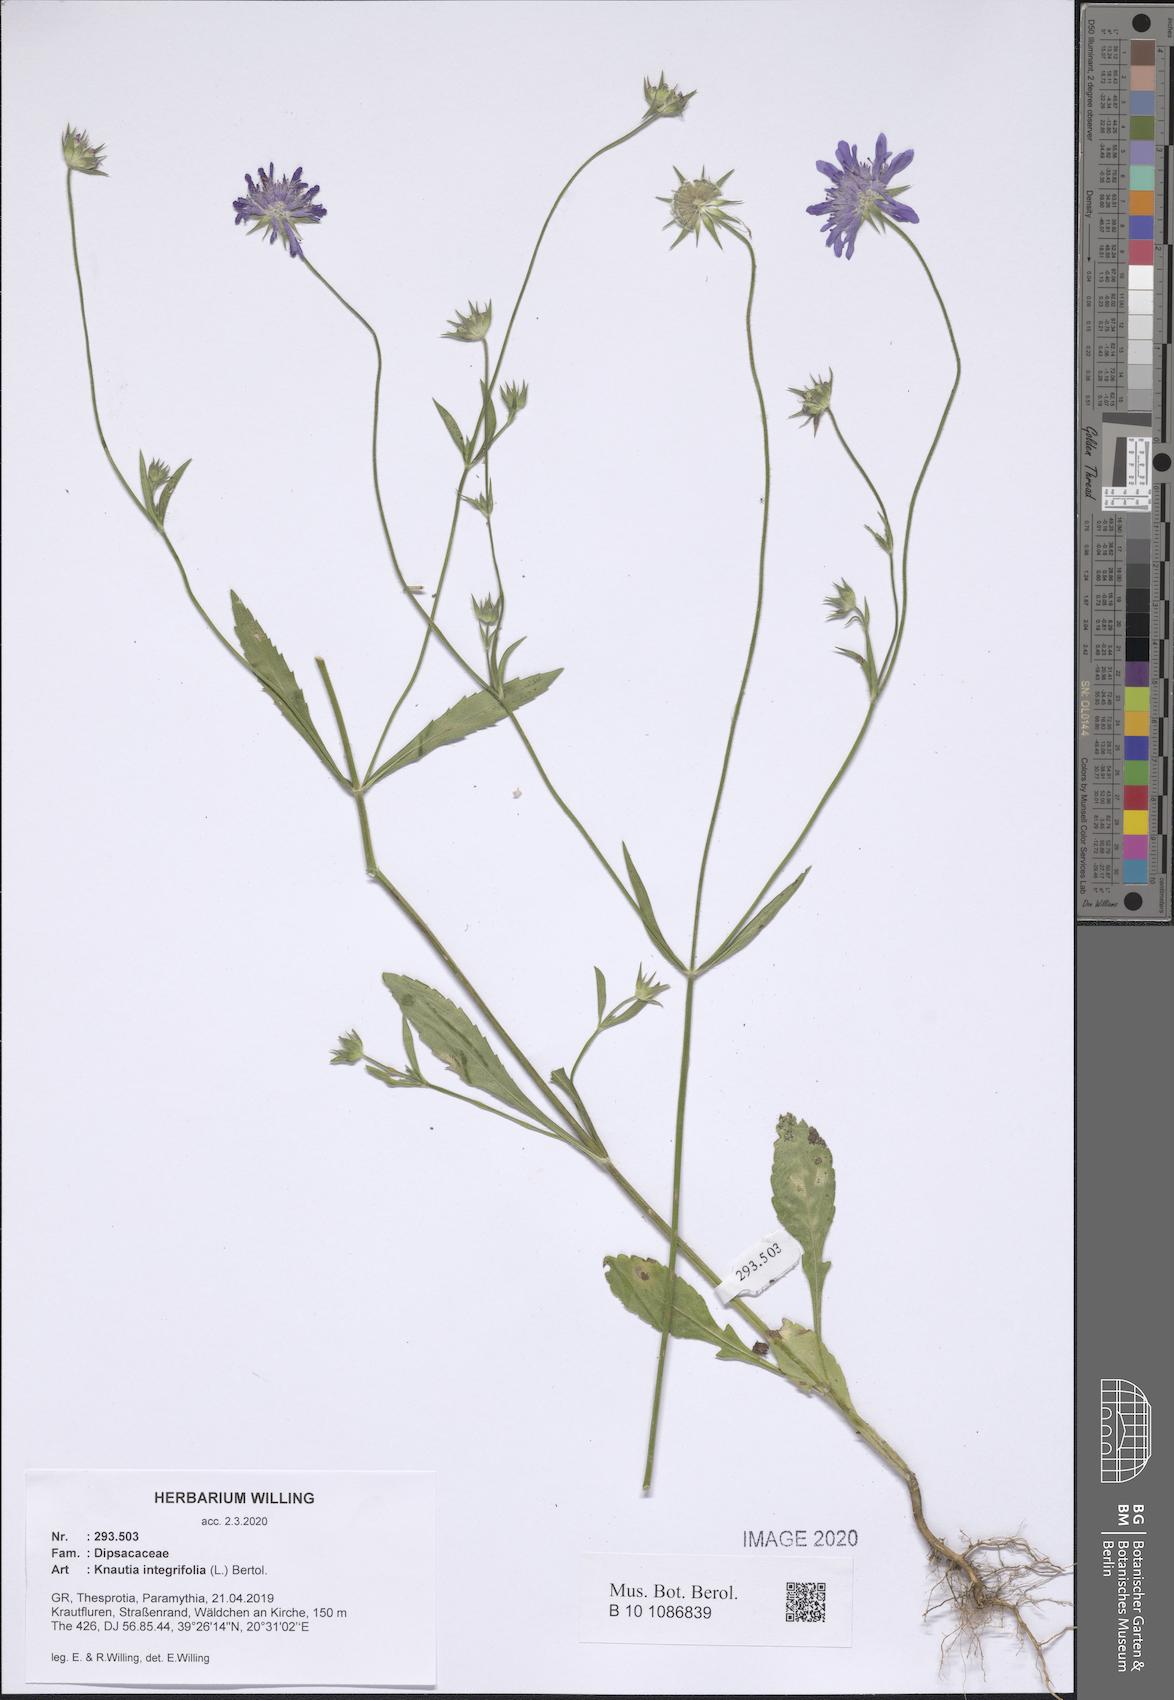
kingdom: Plantae
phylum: Tracheophyta
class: Magnoliopsida
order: Dipsacales
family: Caprifoliaceae
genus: Knautia
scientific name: Knautia integrifolia
